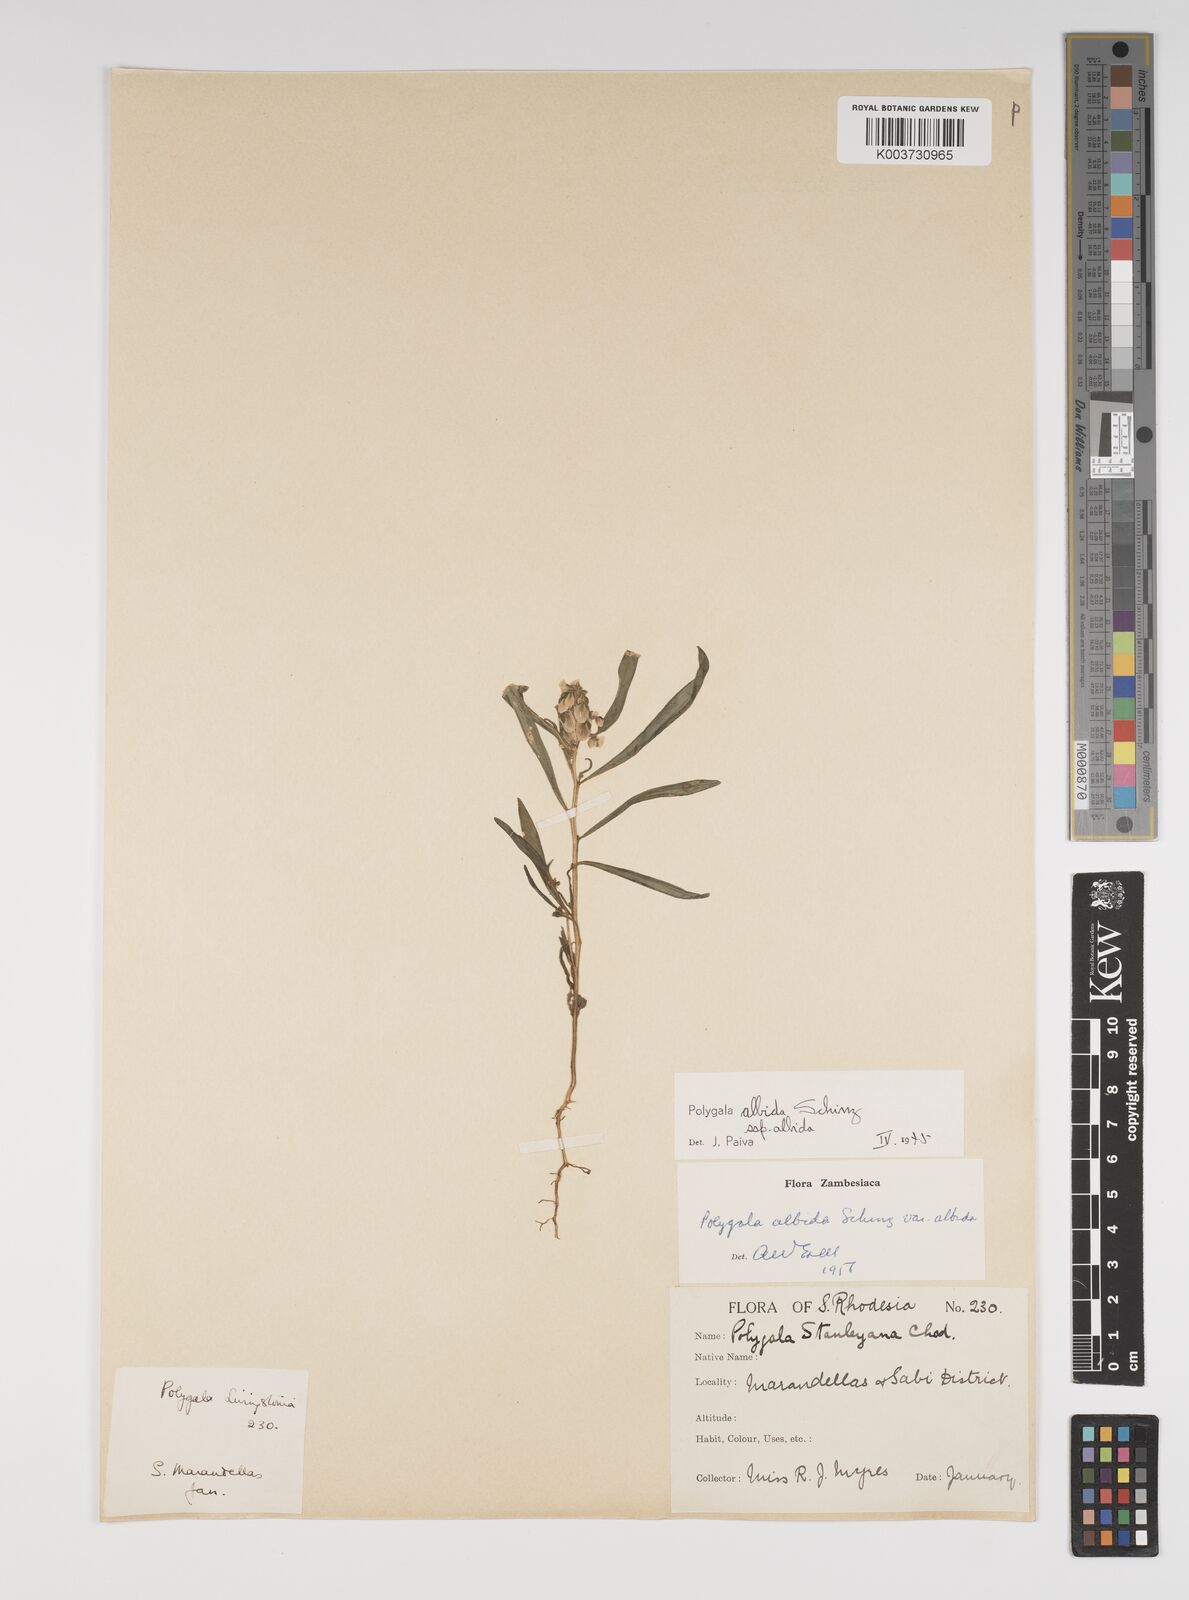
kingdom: Plantae
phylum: Tracheophyta
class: Magnoliopsida
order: Fabales
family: Polygalaceae
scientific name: Polygalaceae
